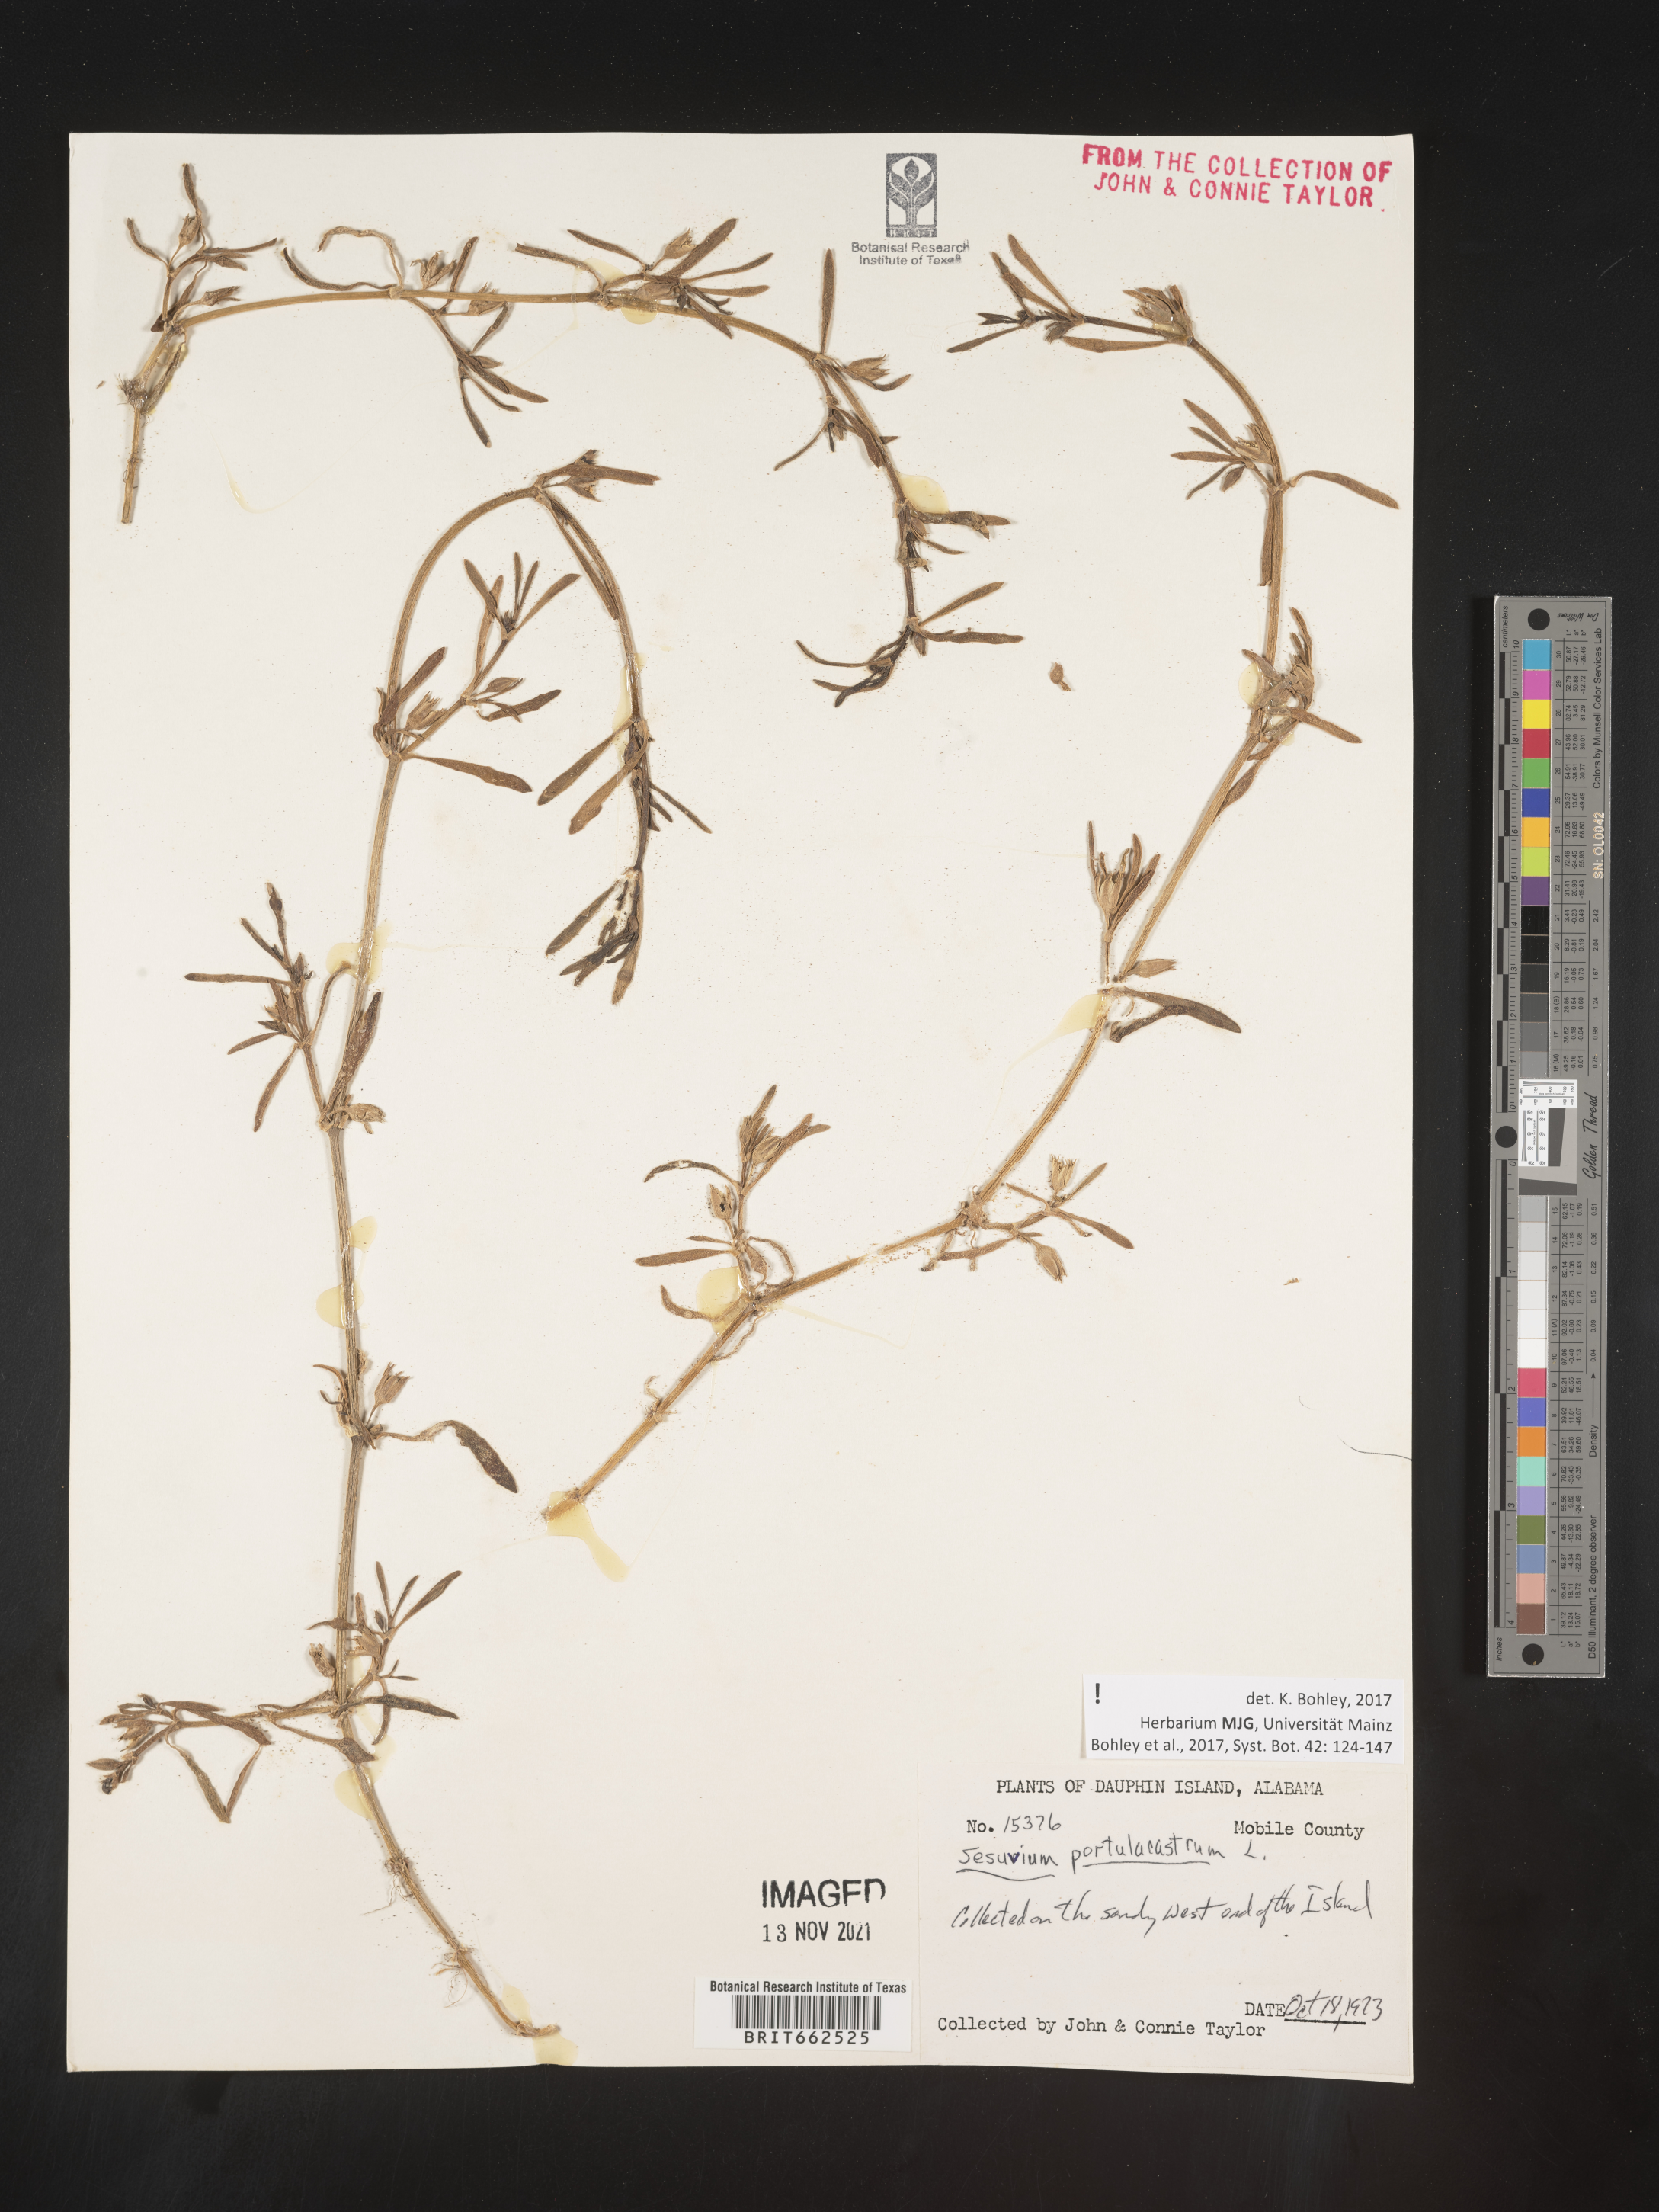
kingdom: Plantae
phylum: Tracheophyta
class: Magnoliopsida
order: Caryophyllales
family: Aizoaceae
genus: Sesuvium
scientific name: Sesuvium portulacastrum
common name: Sea-purslane
